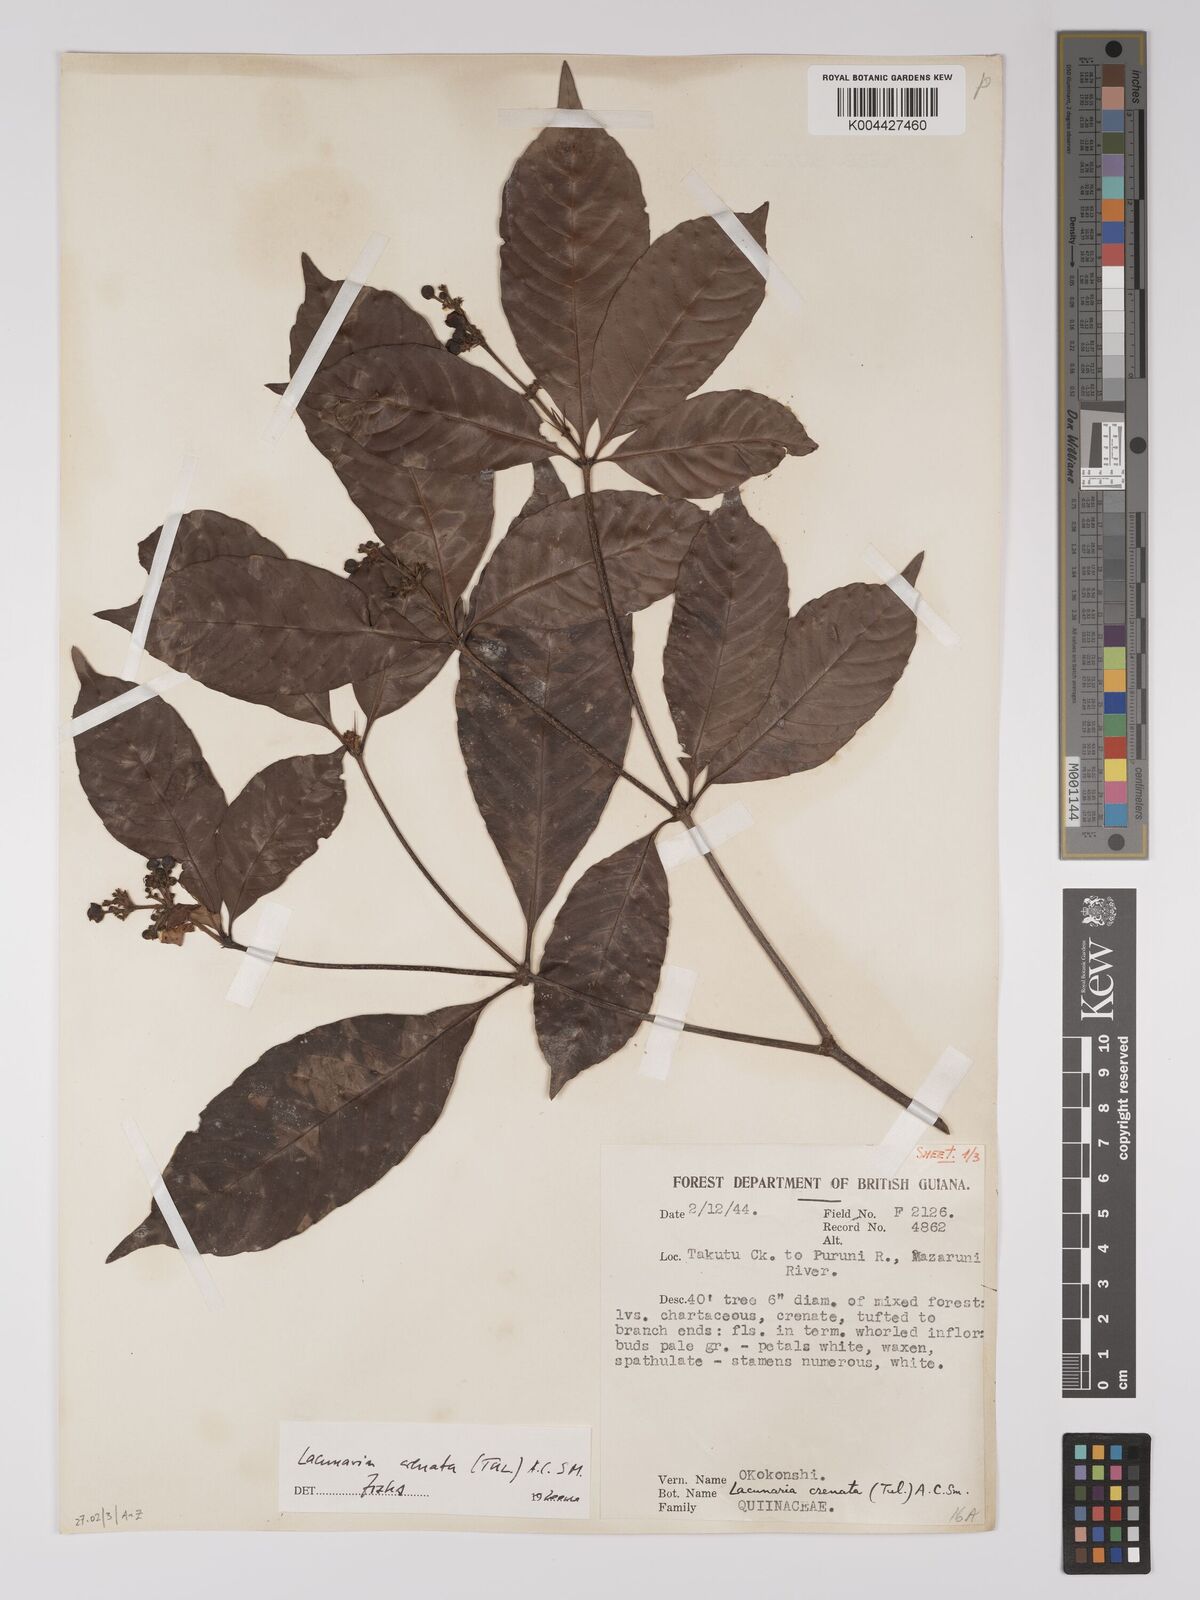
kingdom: Plantae
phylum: Tracheophyta
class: Magnoliopsida
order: Malpighiales
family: Quiinaceae
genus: Lacunaria
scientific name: Lacunaria crenata
